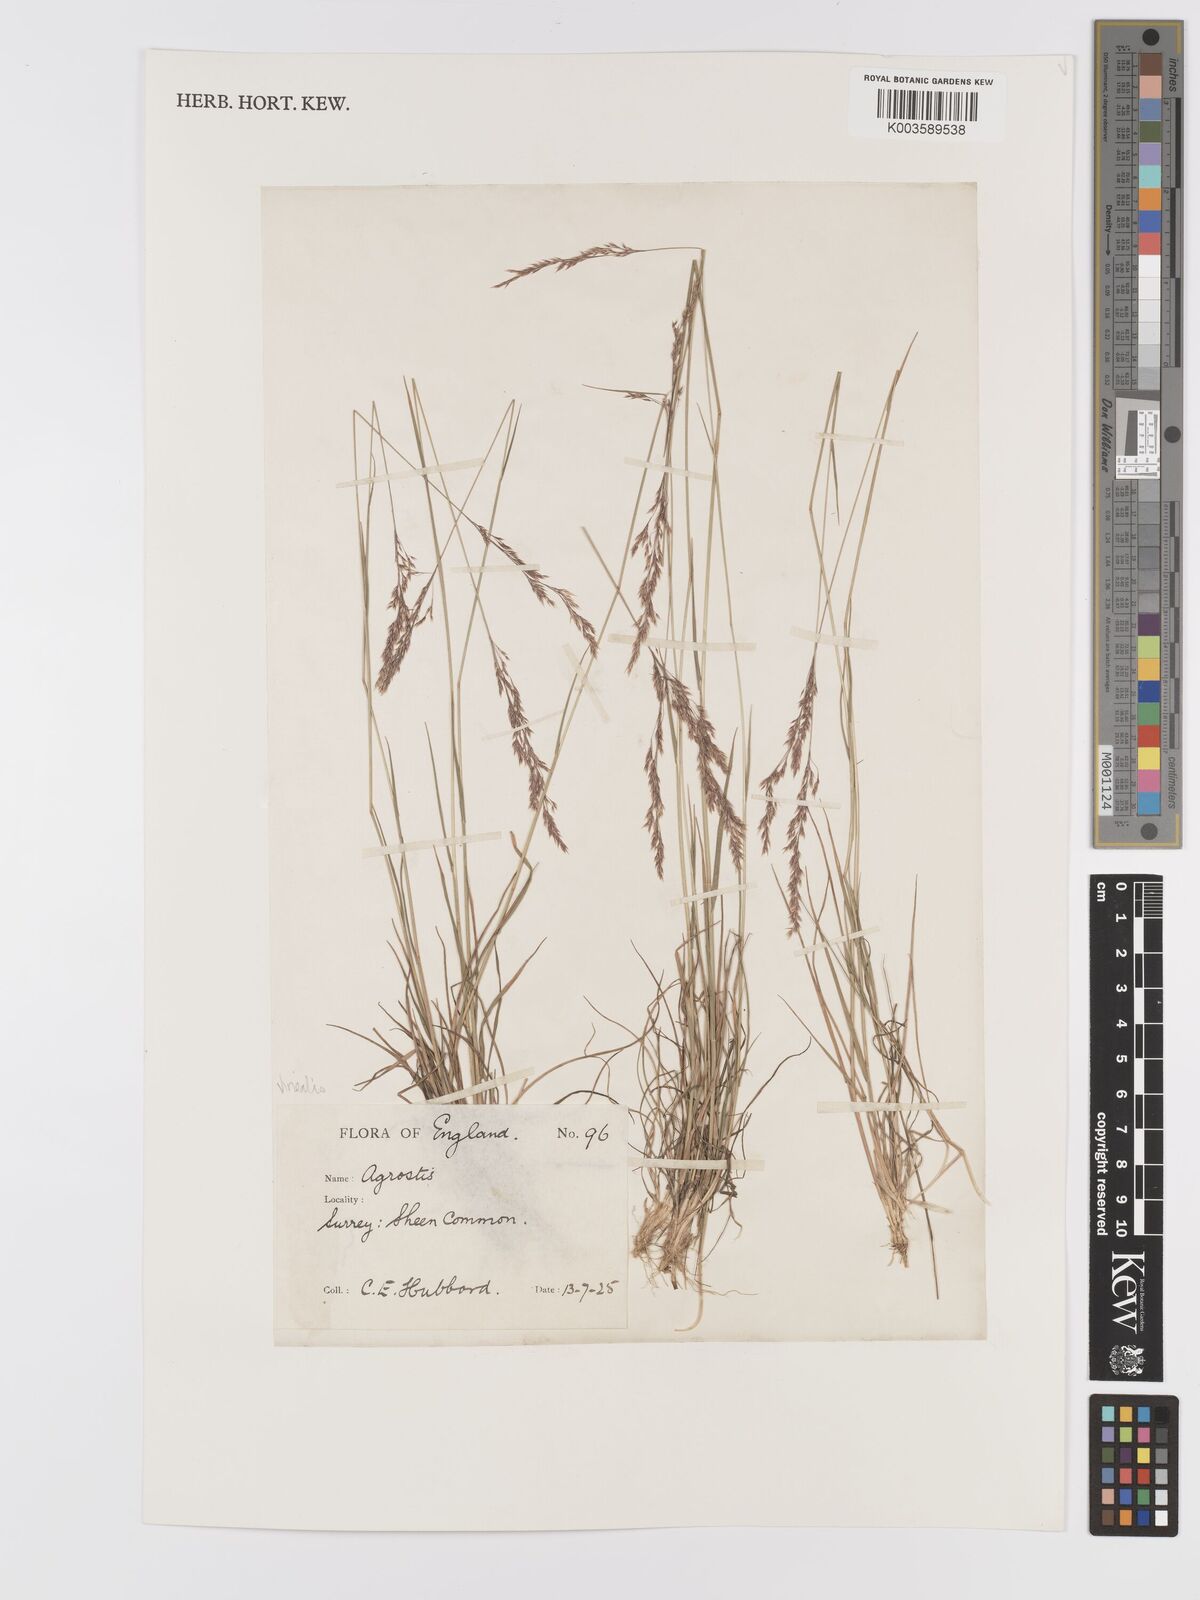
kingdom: Plantae
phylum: Tracheophyta
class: Liliopsida
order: Poales
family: Poaceae
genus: Agrostis
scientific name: Agrostis
